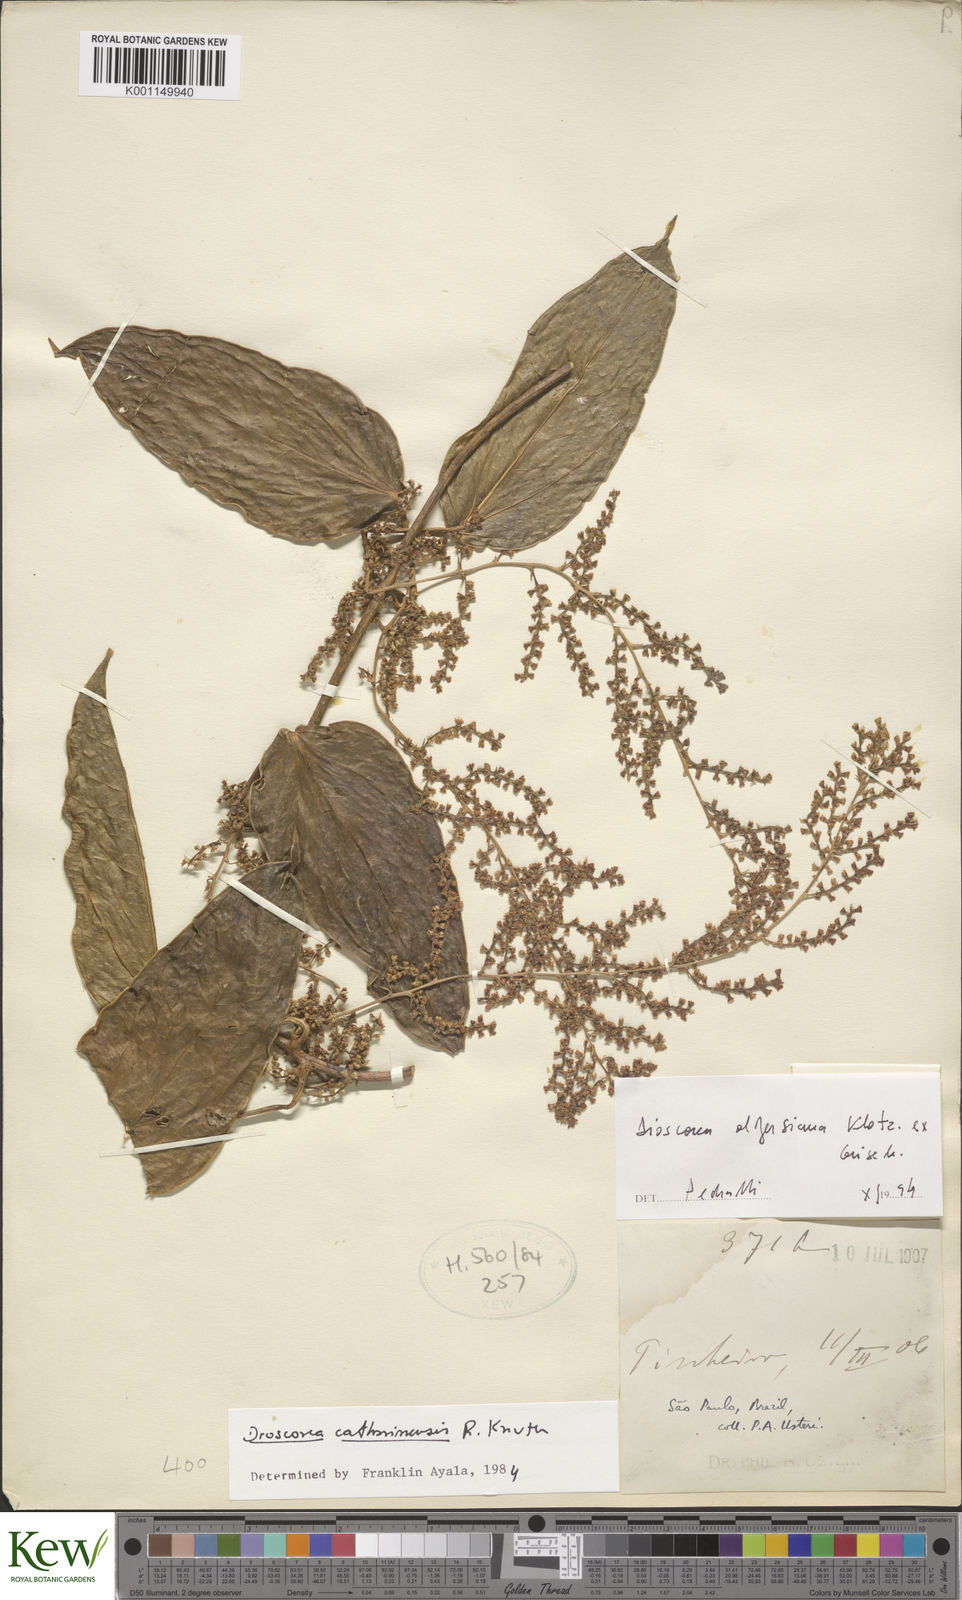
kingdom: Plantae
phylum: Tracheophyta
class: Liliopsida
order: Dioscoreales
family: Dioscoreaceae
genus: Dioscorea
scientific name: Dioscorea olfersiana
